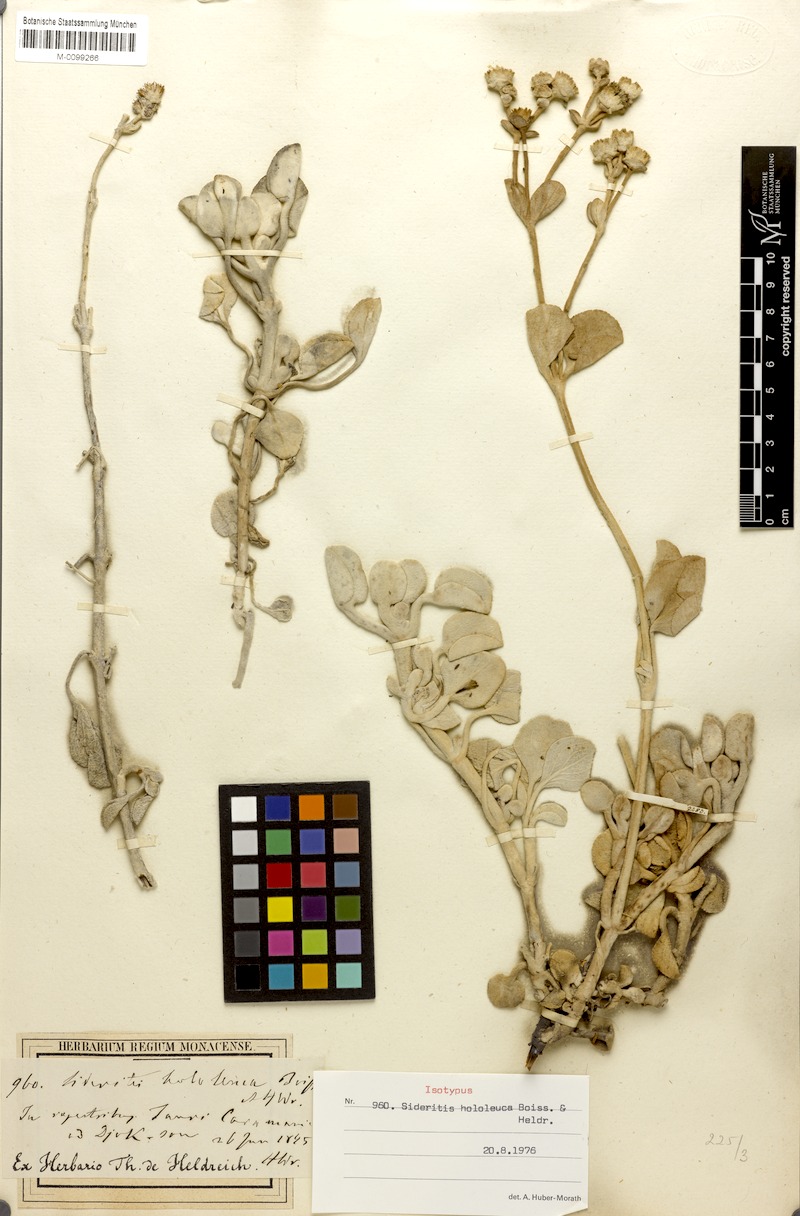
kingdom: Plantae
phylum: Tracheophyta
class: Magnoliopsida
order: Lamiales
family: Lamiaceae
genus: Sideritis
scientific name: Sideritis hololeuca
